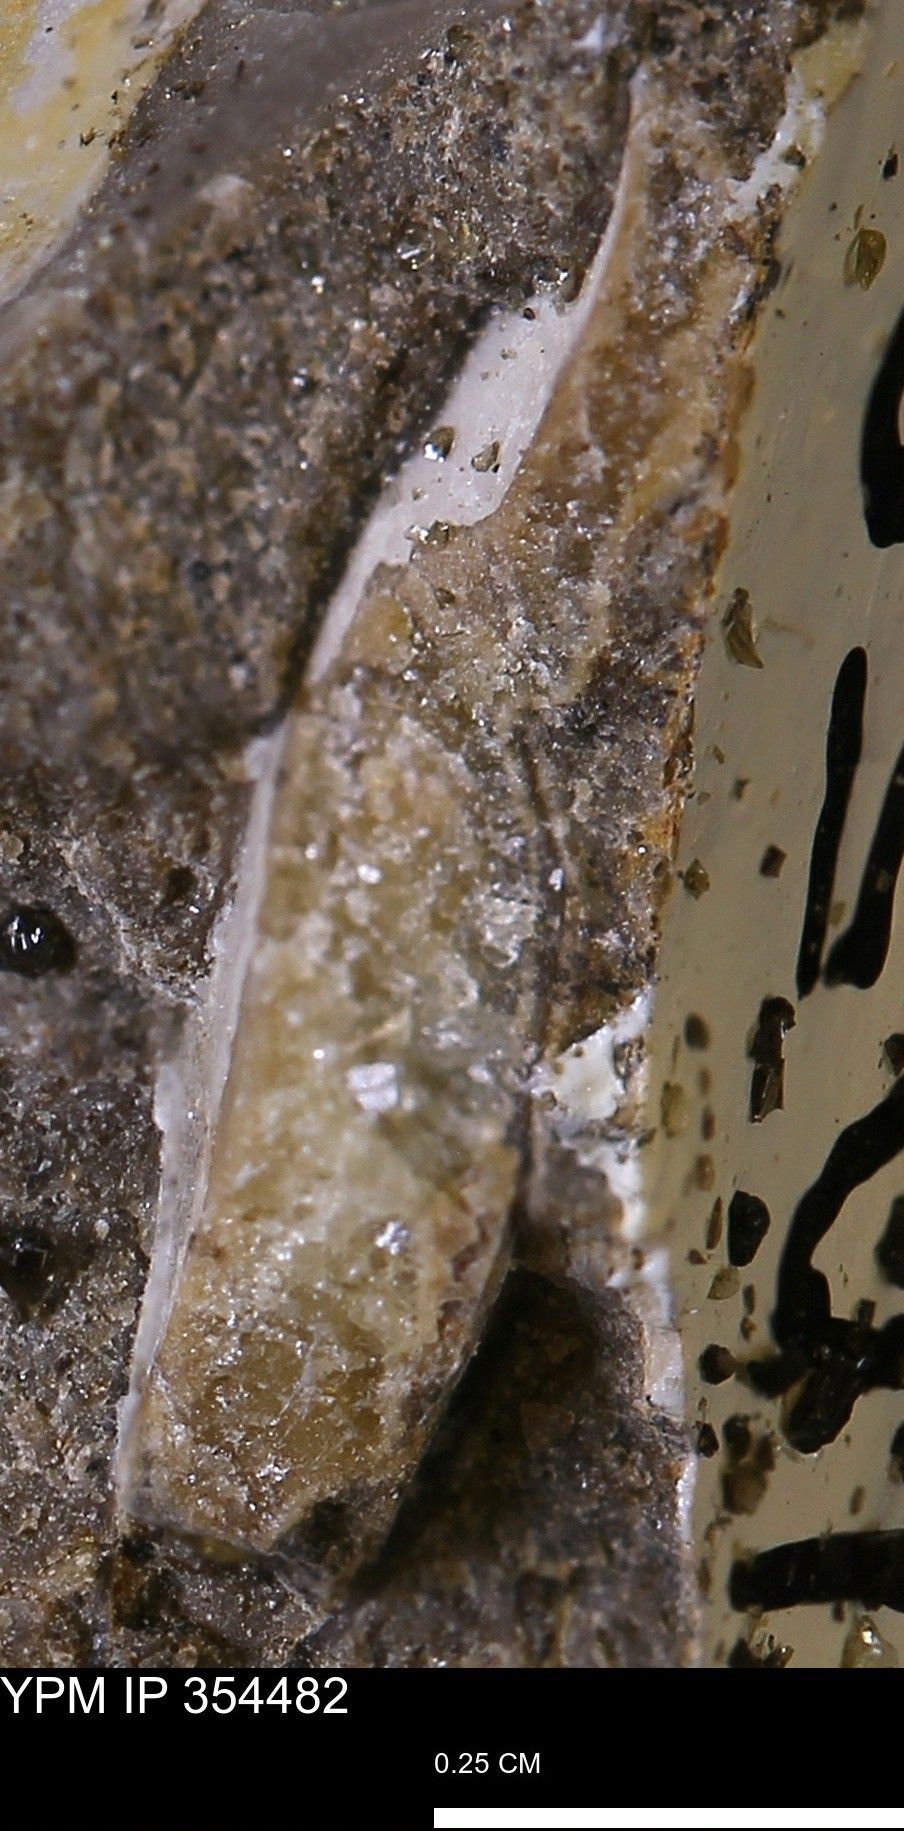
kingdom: Animalia
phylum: Mollusca
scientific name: Mollusca
